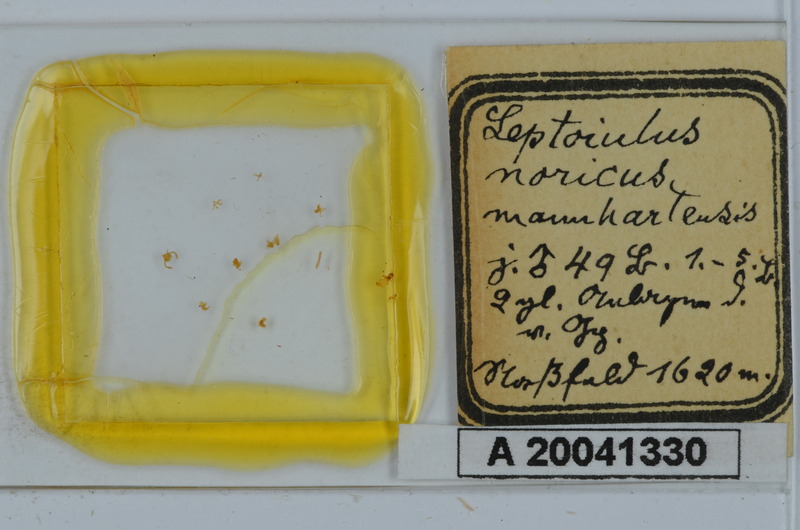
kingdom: Animalia
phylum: Arthropoda
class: Diplopoda
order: Julida
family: Julidae
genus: Leptoiulus
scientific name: Leptoiulus noricus
